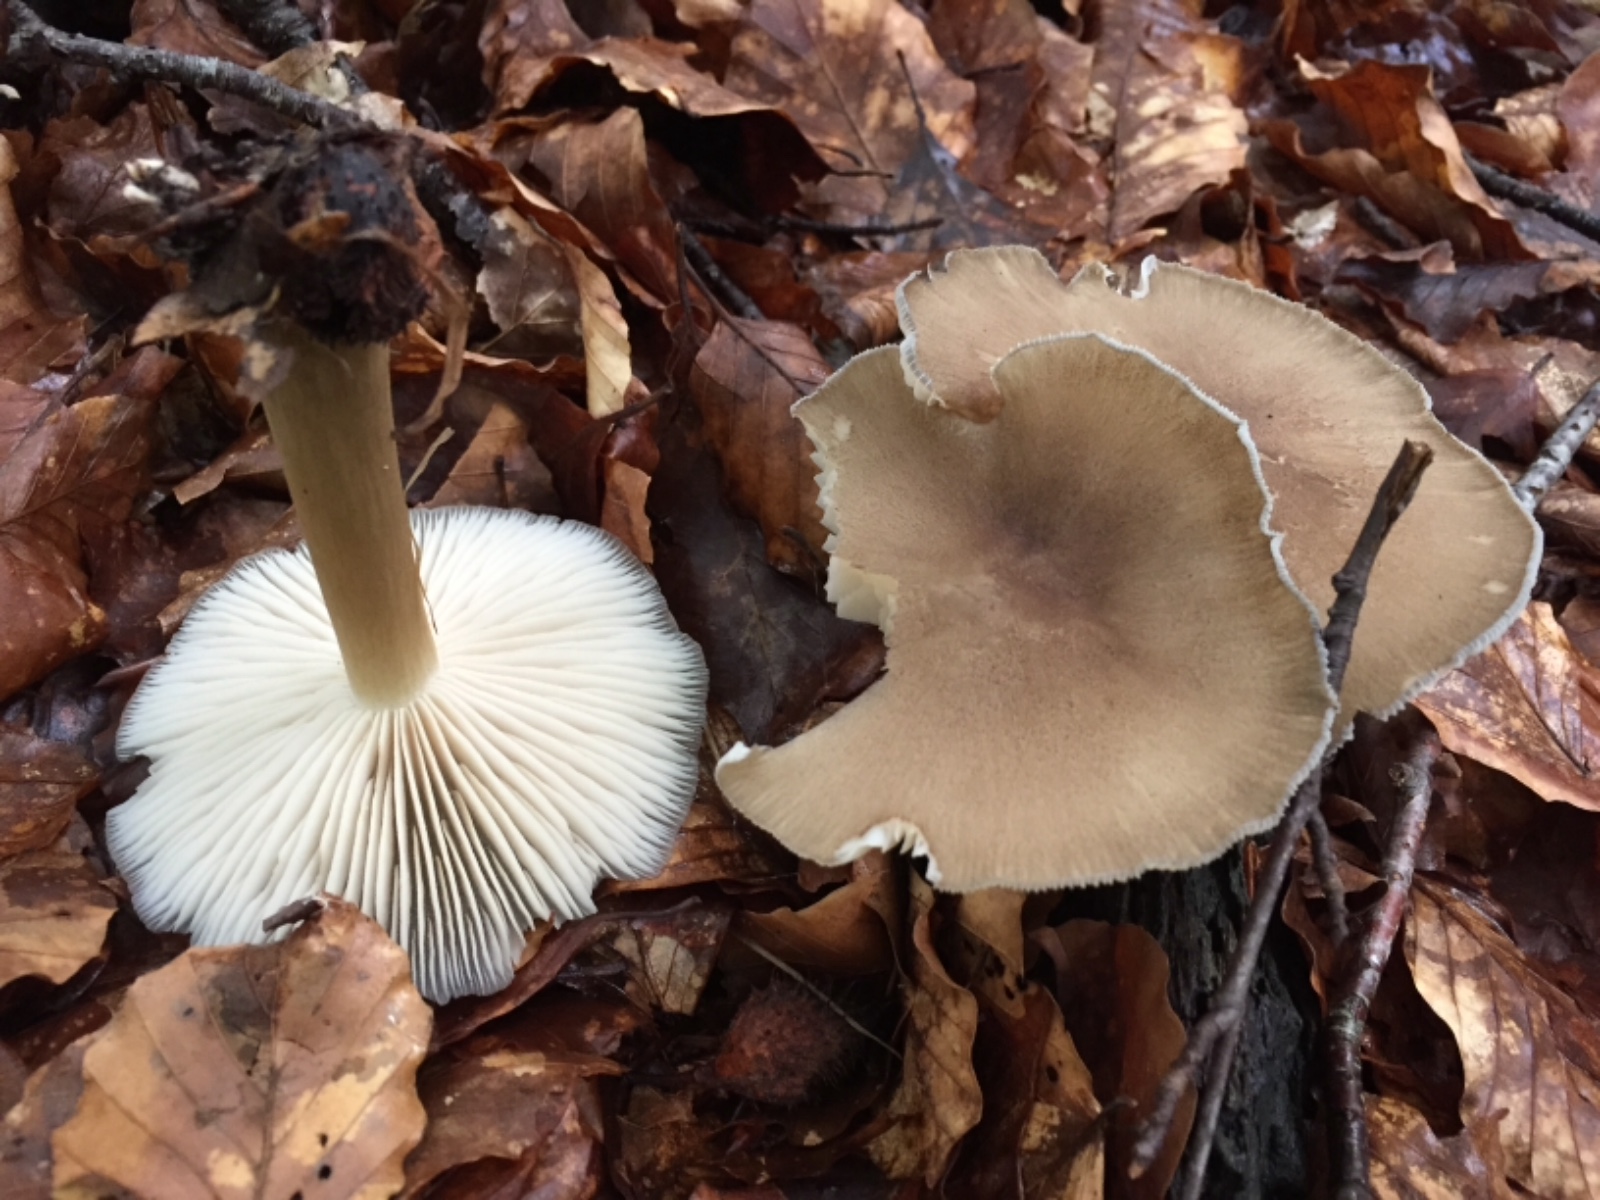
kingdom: Fungi
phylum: Basidiomycota
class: Agaricomycetes
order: Agaricales
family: Tricholomataceae
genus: Megacollybia
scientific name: Megacollybia platyphylla
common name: bredbladet væbnerhat
